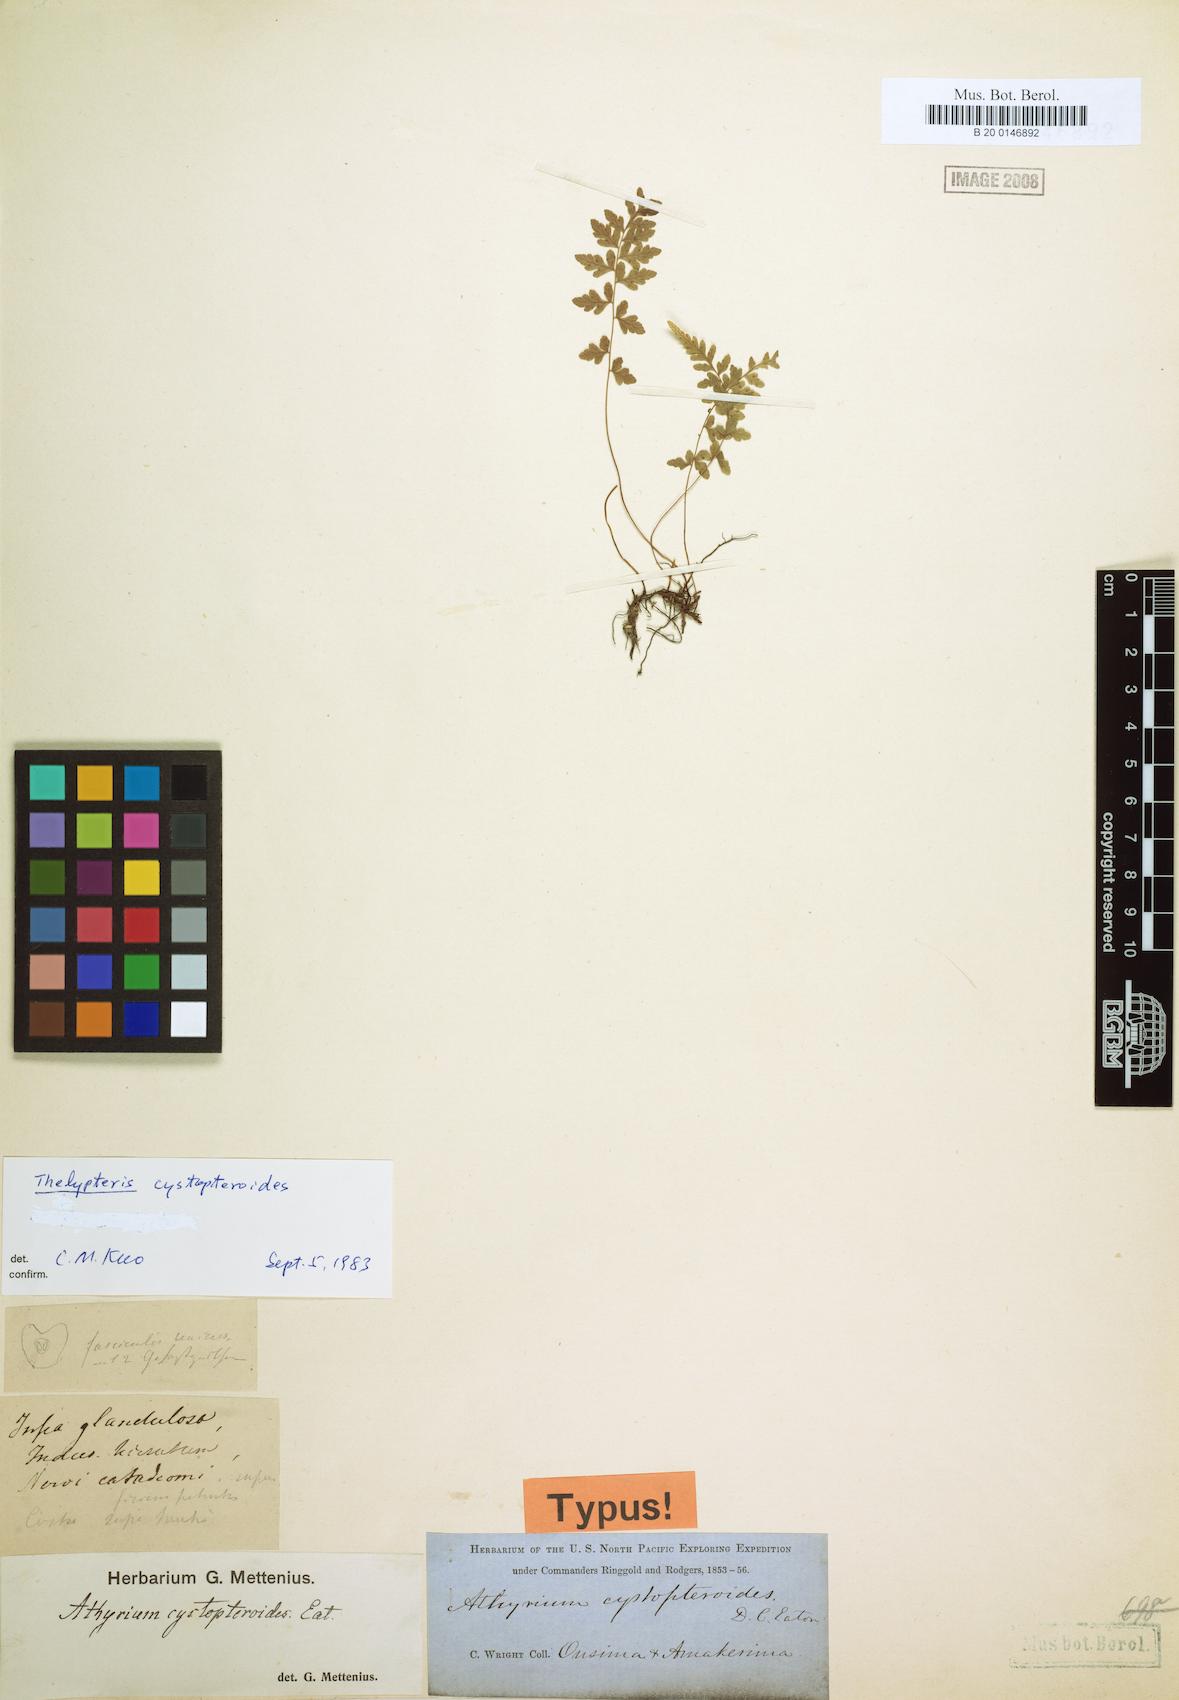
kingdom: Plantae
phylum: Tracheophyta
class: Polypodiopsida
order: Polypodiales
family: Thelypteridaceae
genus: Amauropelta
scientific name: Amauropelta cystopteroides
